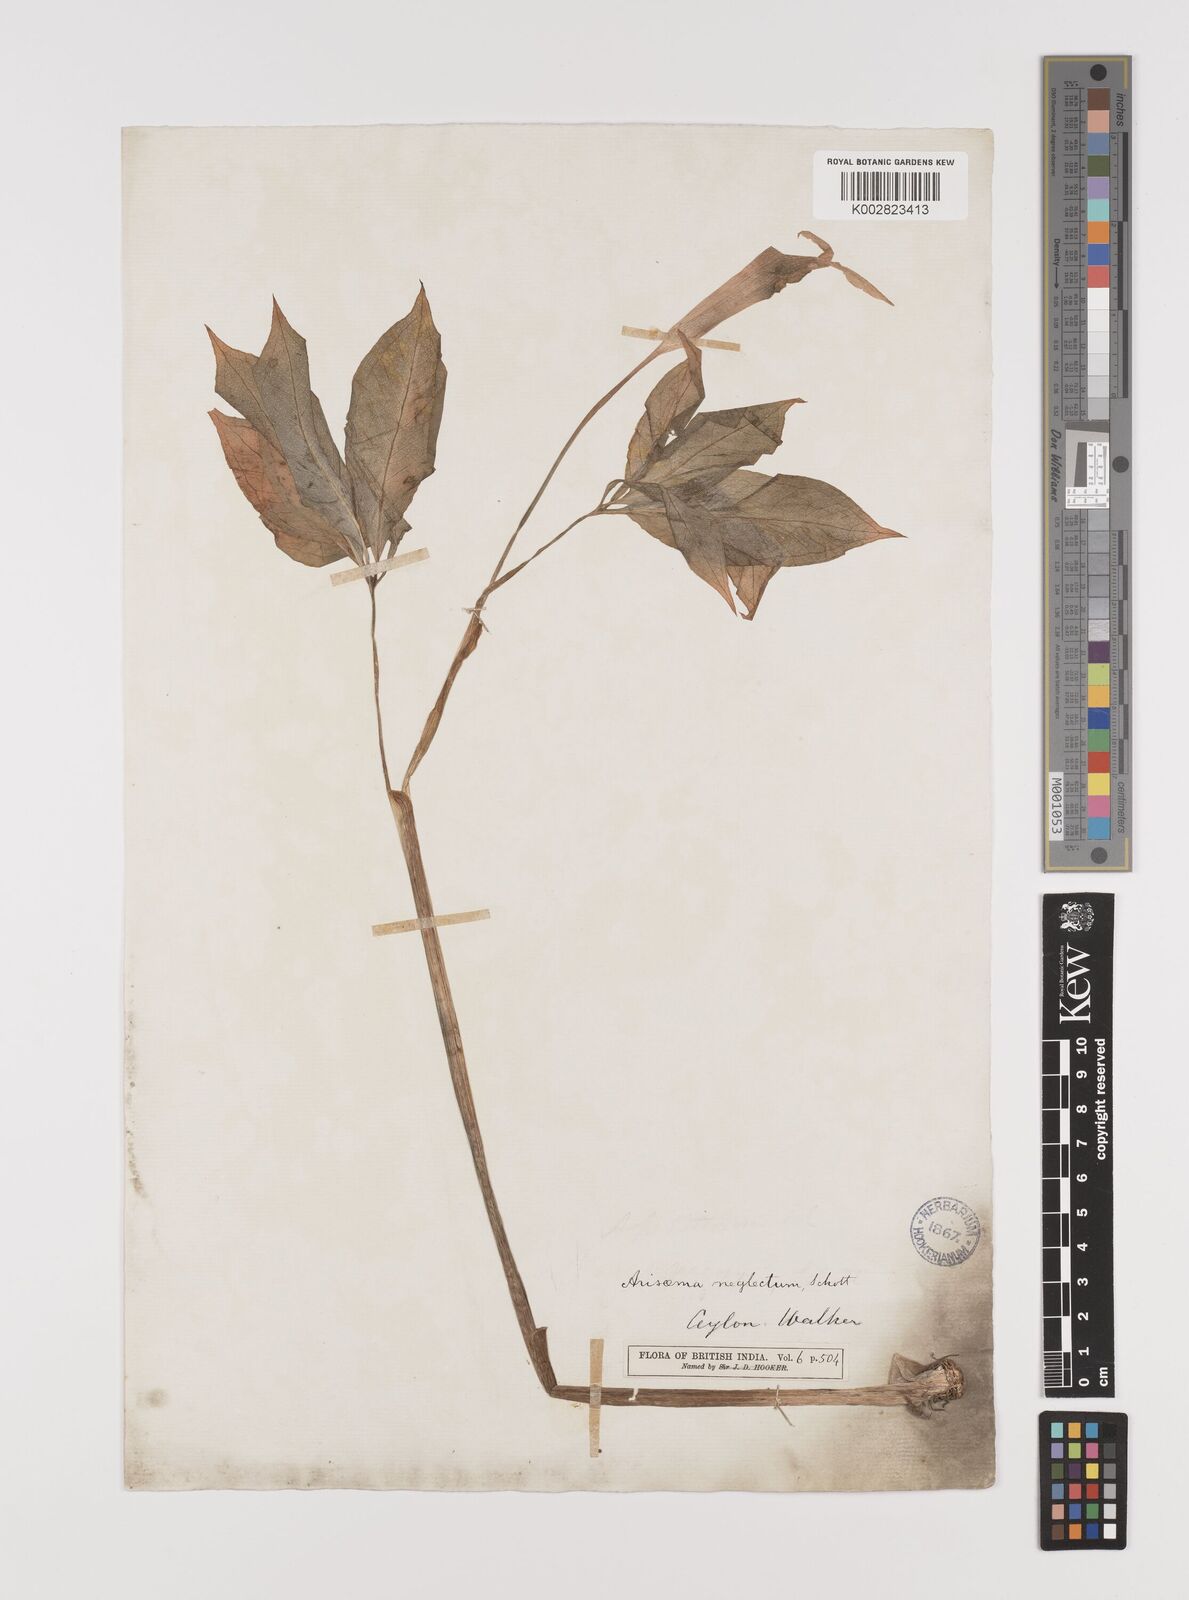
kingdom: Plantae
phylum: Tracheophyta
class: Liliopsida
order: Alismatales
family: Araceae
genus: Arisaema
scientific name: Arisaema tortuosum
